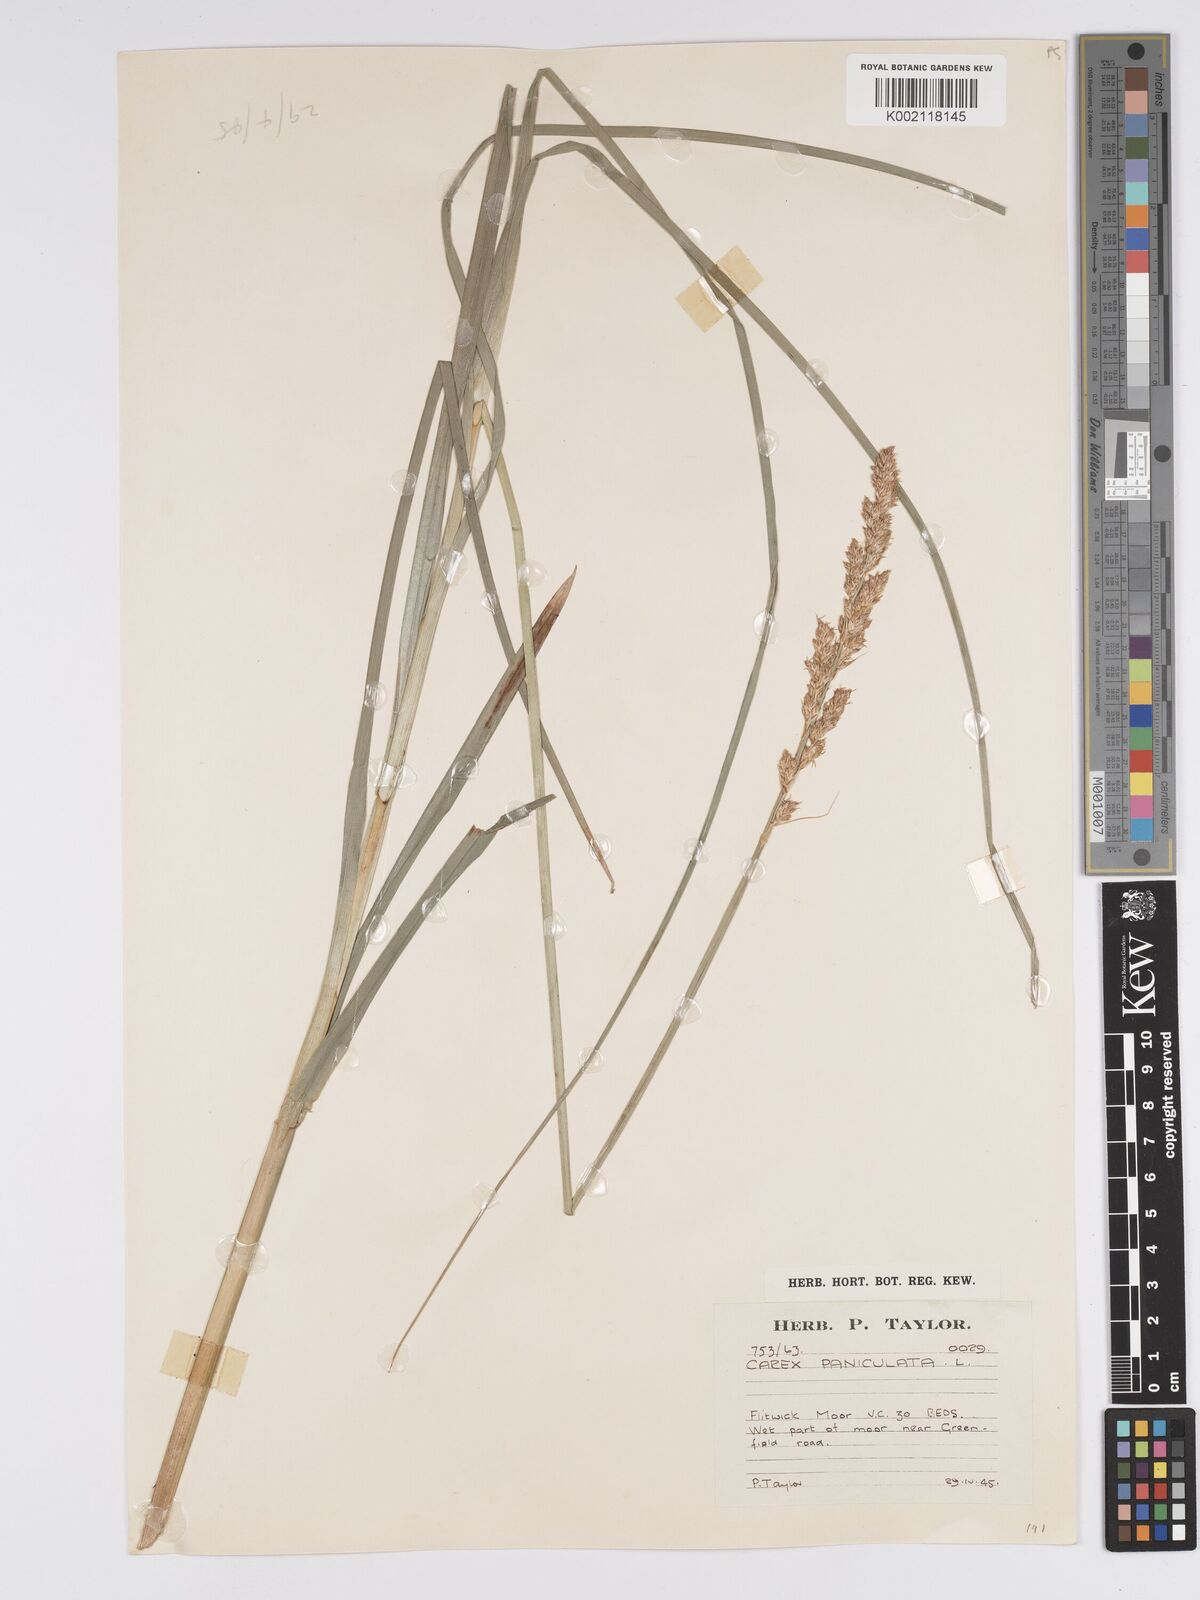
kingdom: Plantae
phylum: Tracheophyta
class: Liliopsida
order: Poales
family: Cyperaceae
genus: Carex
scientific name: Carex paniculata
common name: Greater tussock-sedge
